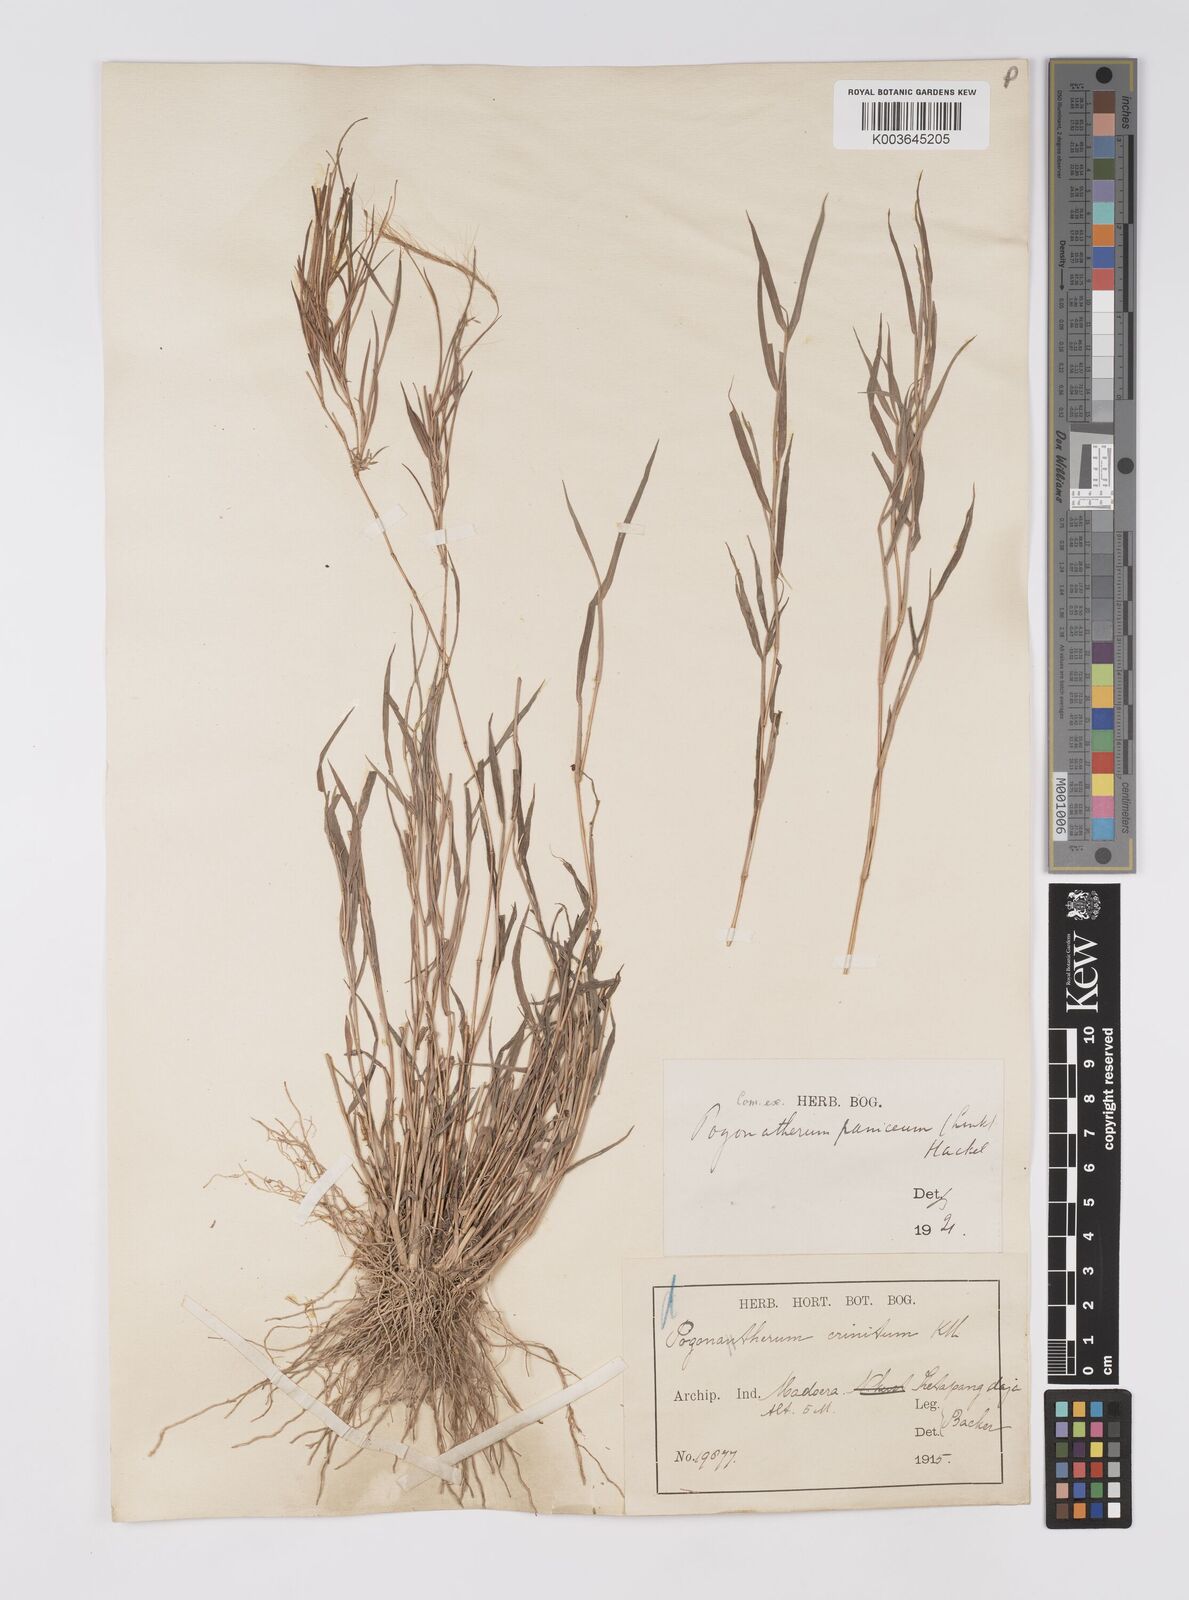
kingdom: Plantae
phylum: Tracheophyta
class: Liliopsida
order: Poales
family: Poaceae
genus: Pogonatherum
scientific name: Pogonatherum paniceum
